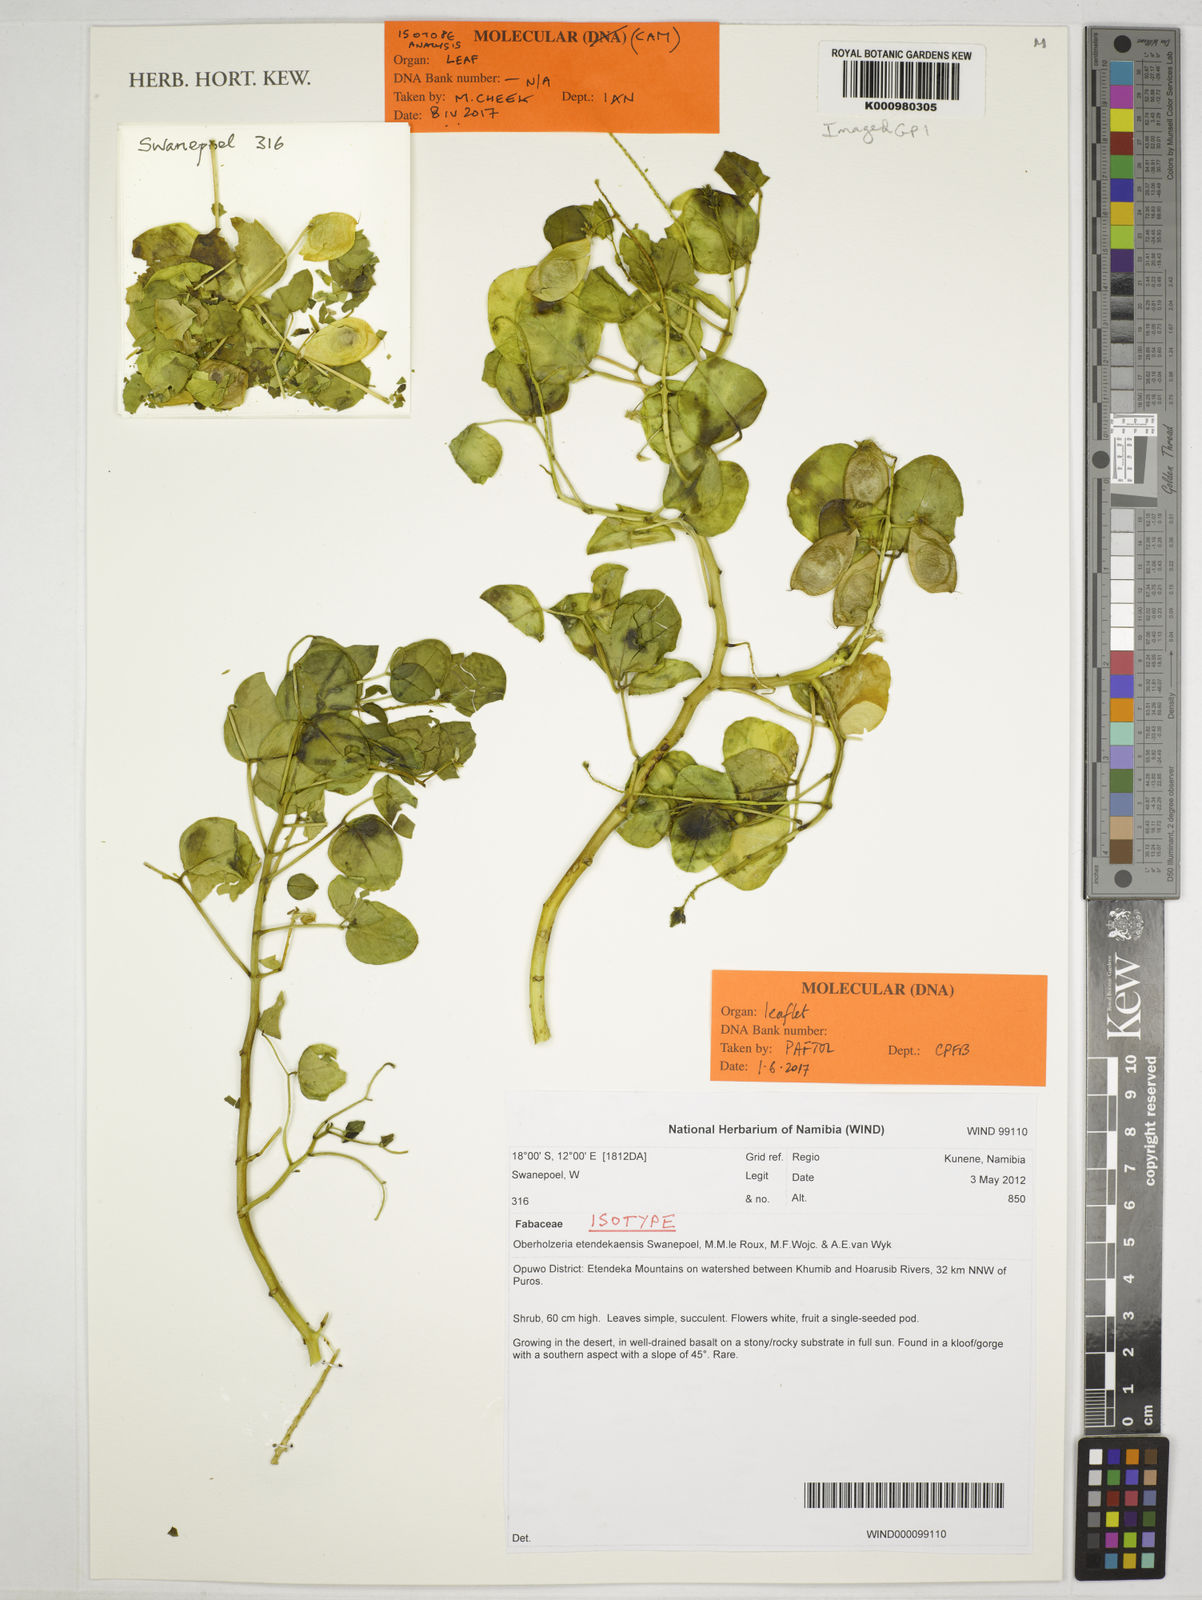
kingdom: Plantae
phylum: Tracheophyta
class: Magnoliopsida
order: Fabales
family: Fabaceae
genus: Oberholzeria
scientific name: Oberholzeria
